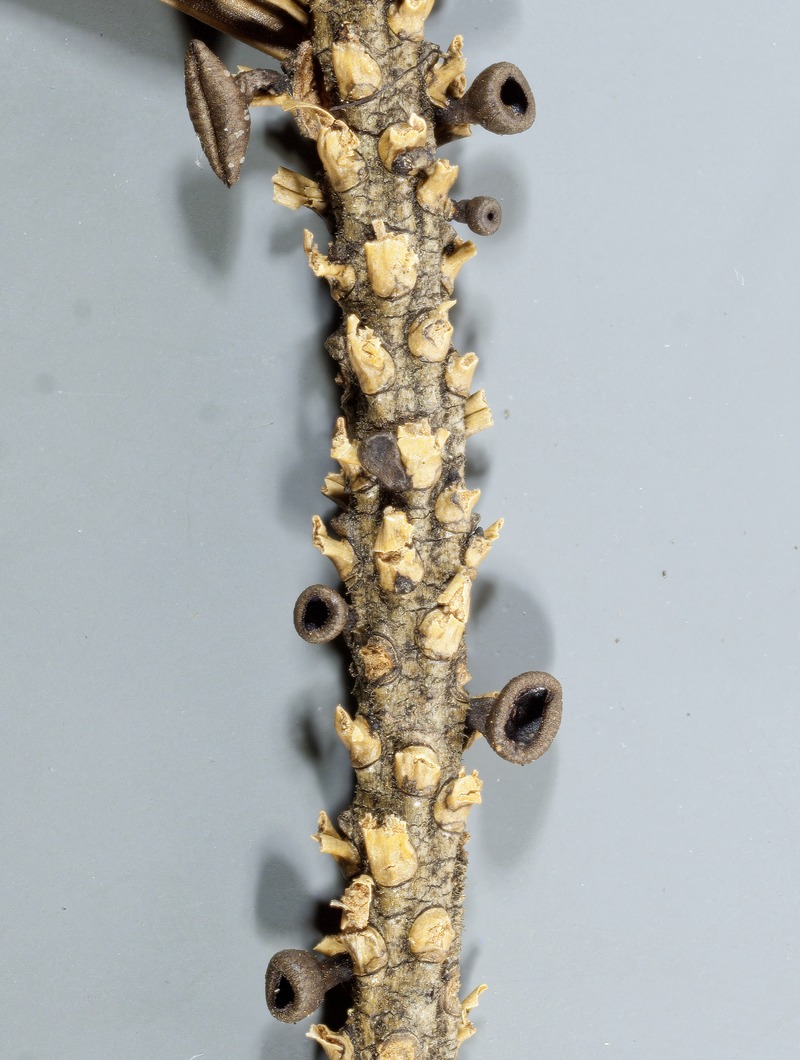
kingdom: Fungi
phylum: Ascomycota
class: Leotiomycetes
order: Helotiales
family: Rutstroemiaceae
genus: Rutstroemia
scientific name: Rutstroemia elatina
